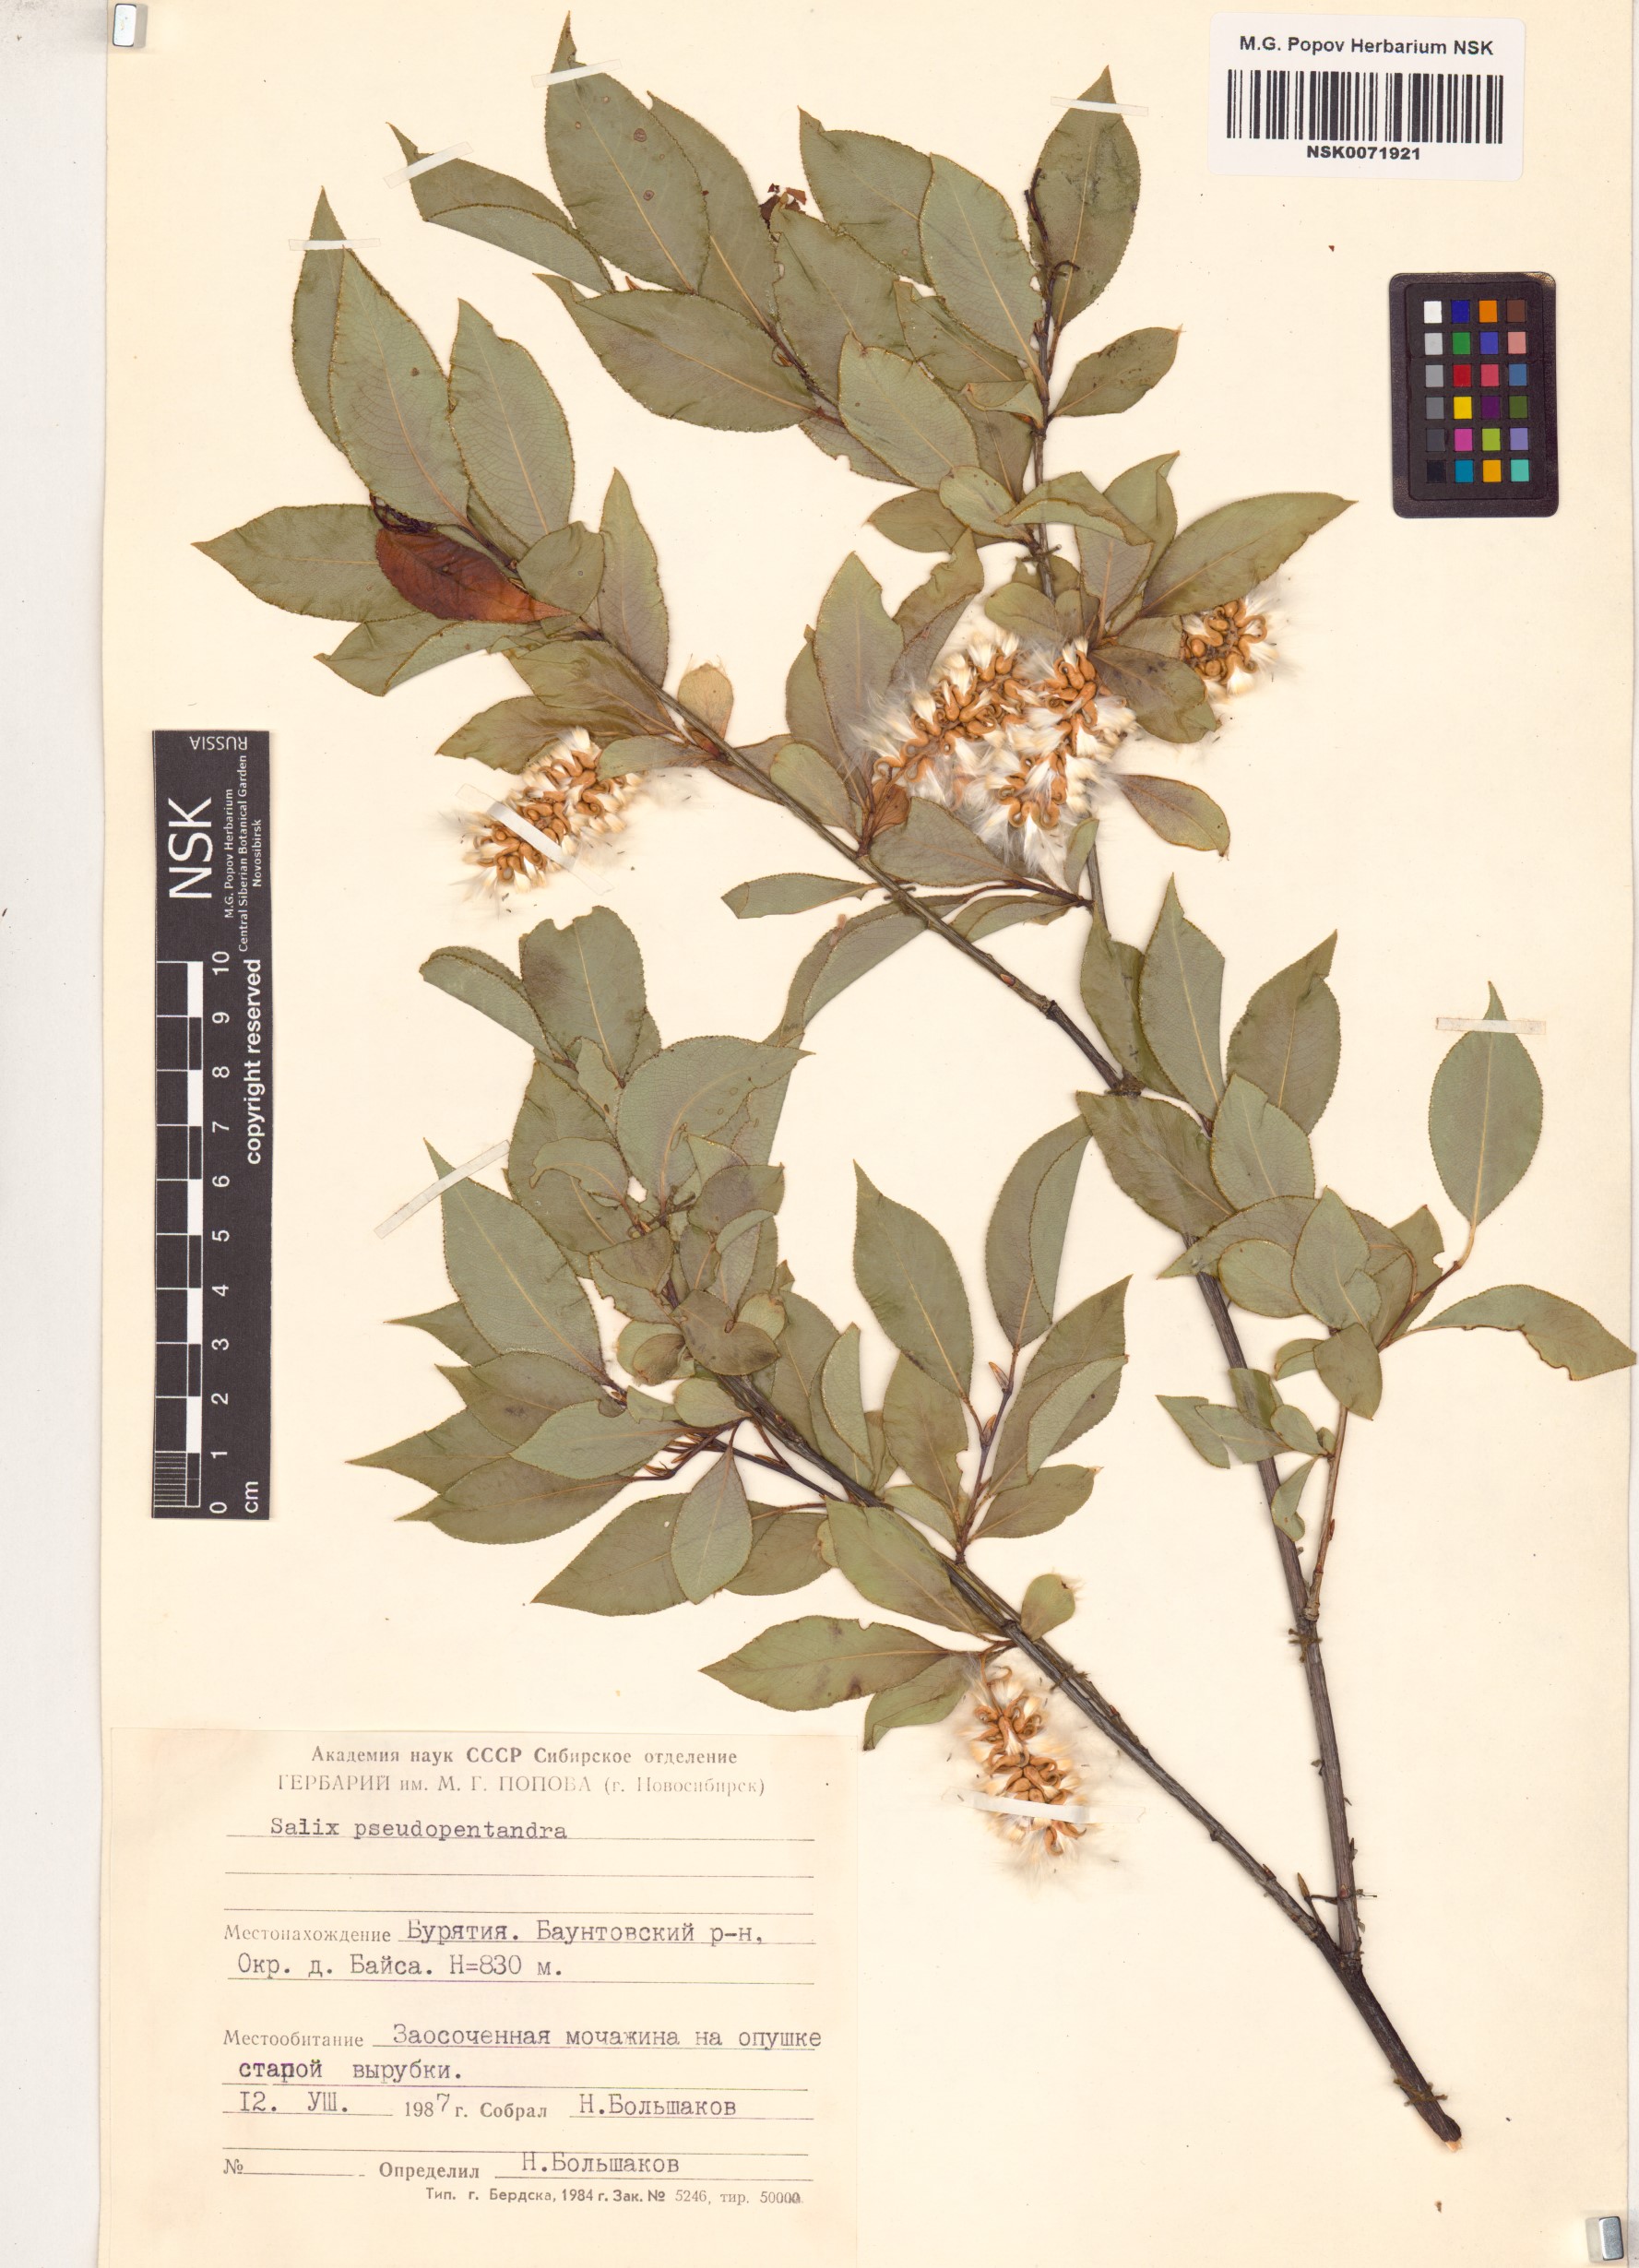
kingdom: Plantae
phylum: Tracheophyta
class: Magnoliopsida
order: Malpighiales
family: Salicaceae
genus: Salix
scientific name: Salix pseudopentandra
